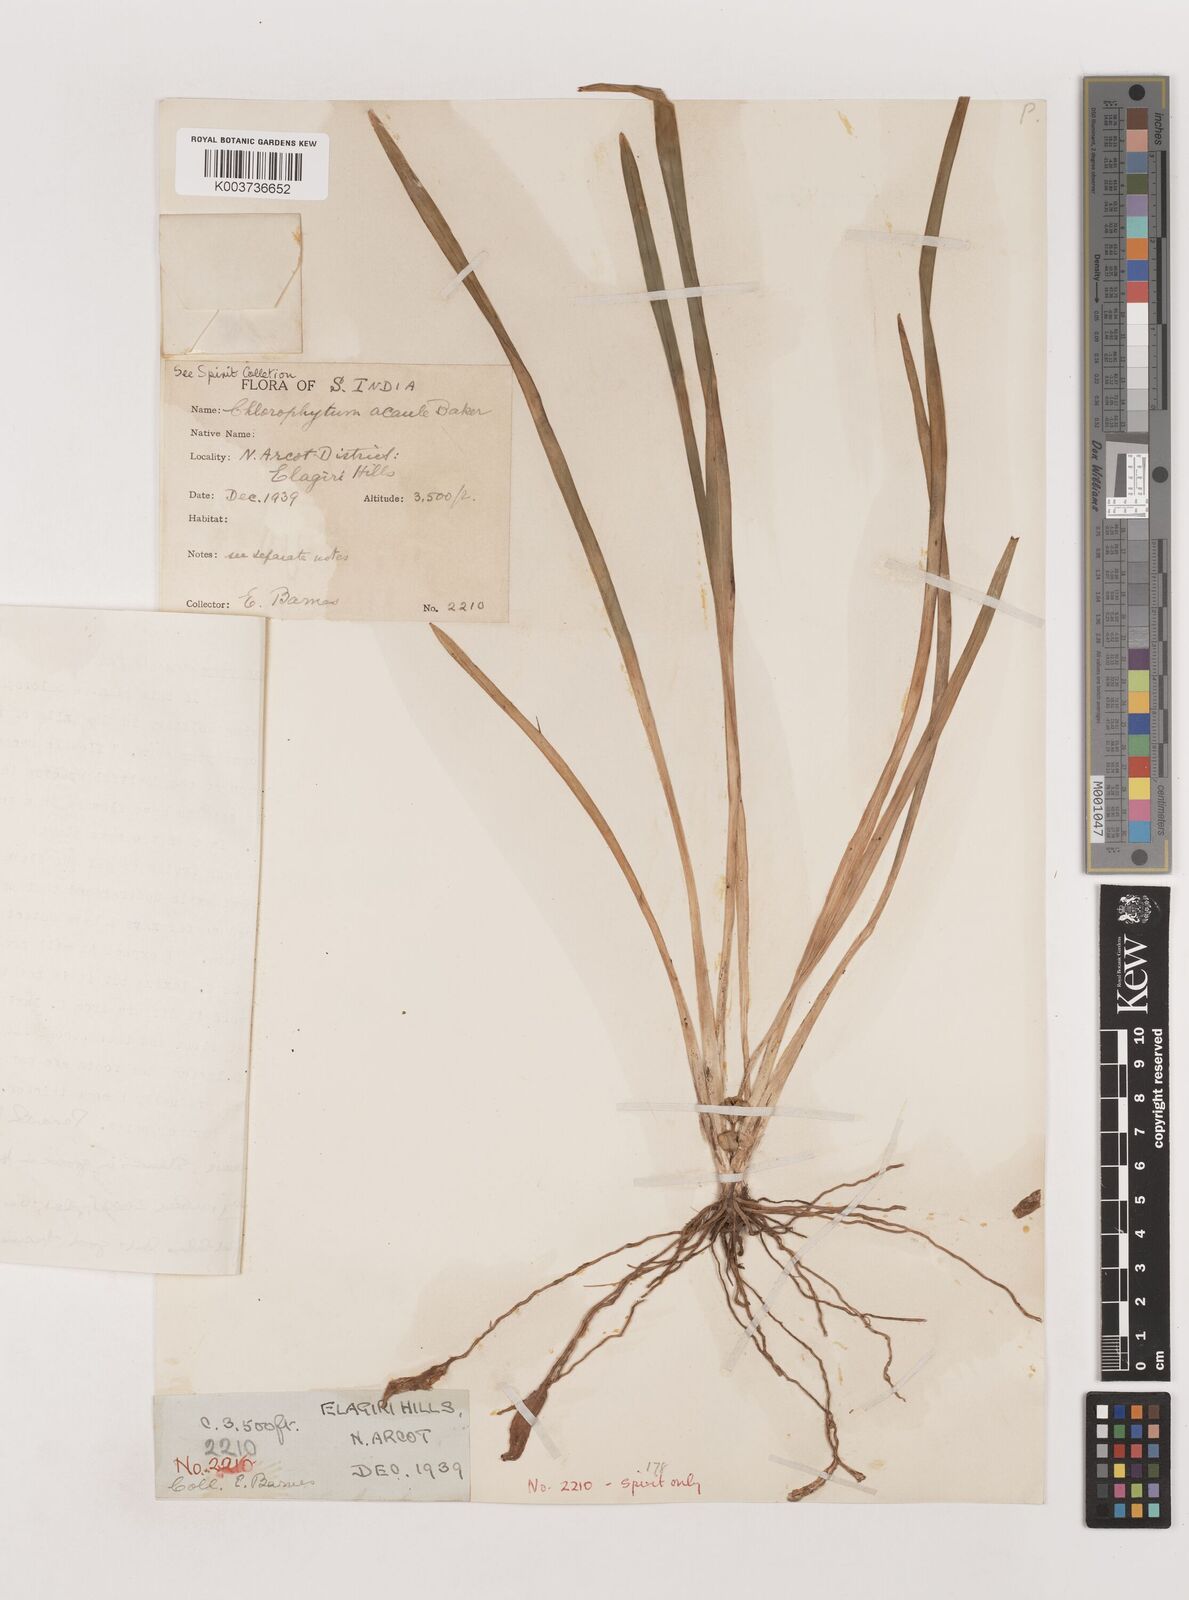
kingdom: Plantae
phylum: Tracheophyta
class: Liliopsida
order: Asparagales
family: Asparagaceae
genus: Chlorophytum
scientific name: Chlorophytum laxum
